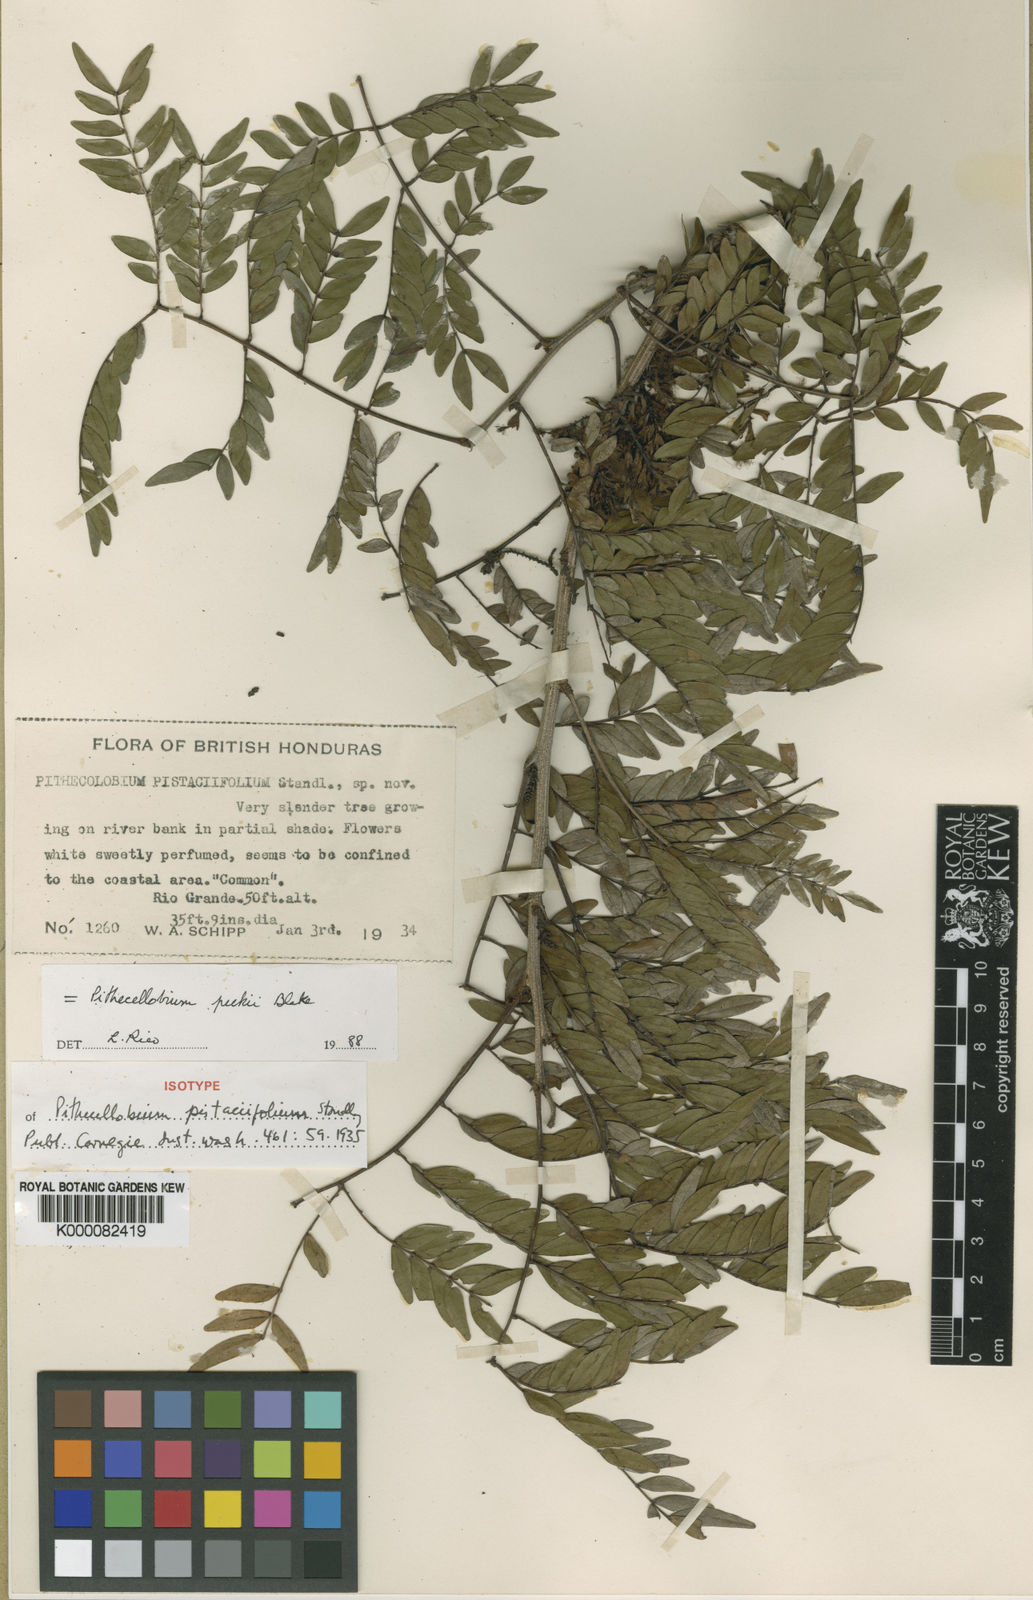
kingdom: Plantae
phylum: Tracheophyta
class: Magnoliopsida
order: Fabales
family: Fabaceae
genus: Pithecellobium
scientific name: Pithecellobium peckii
